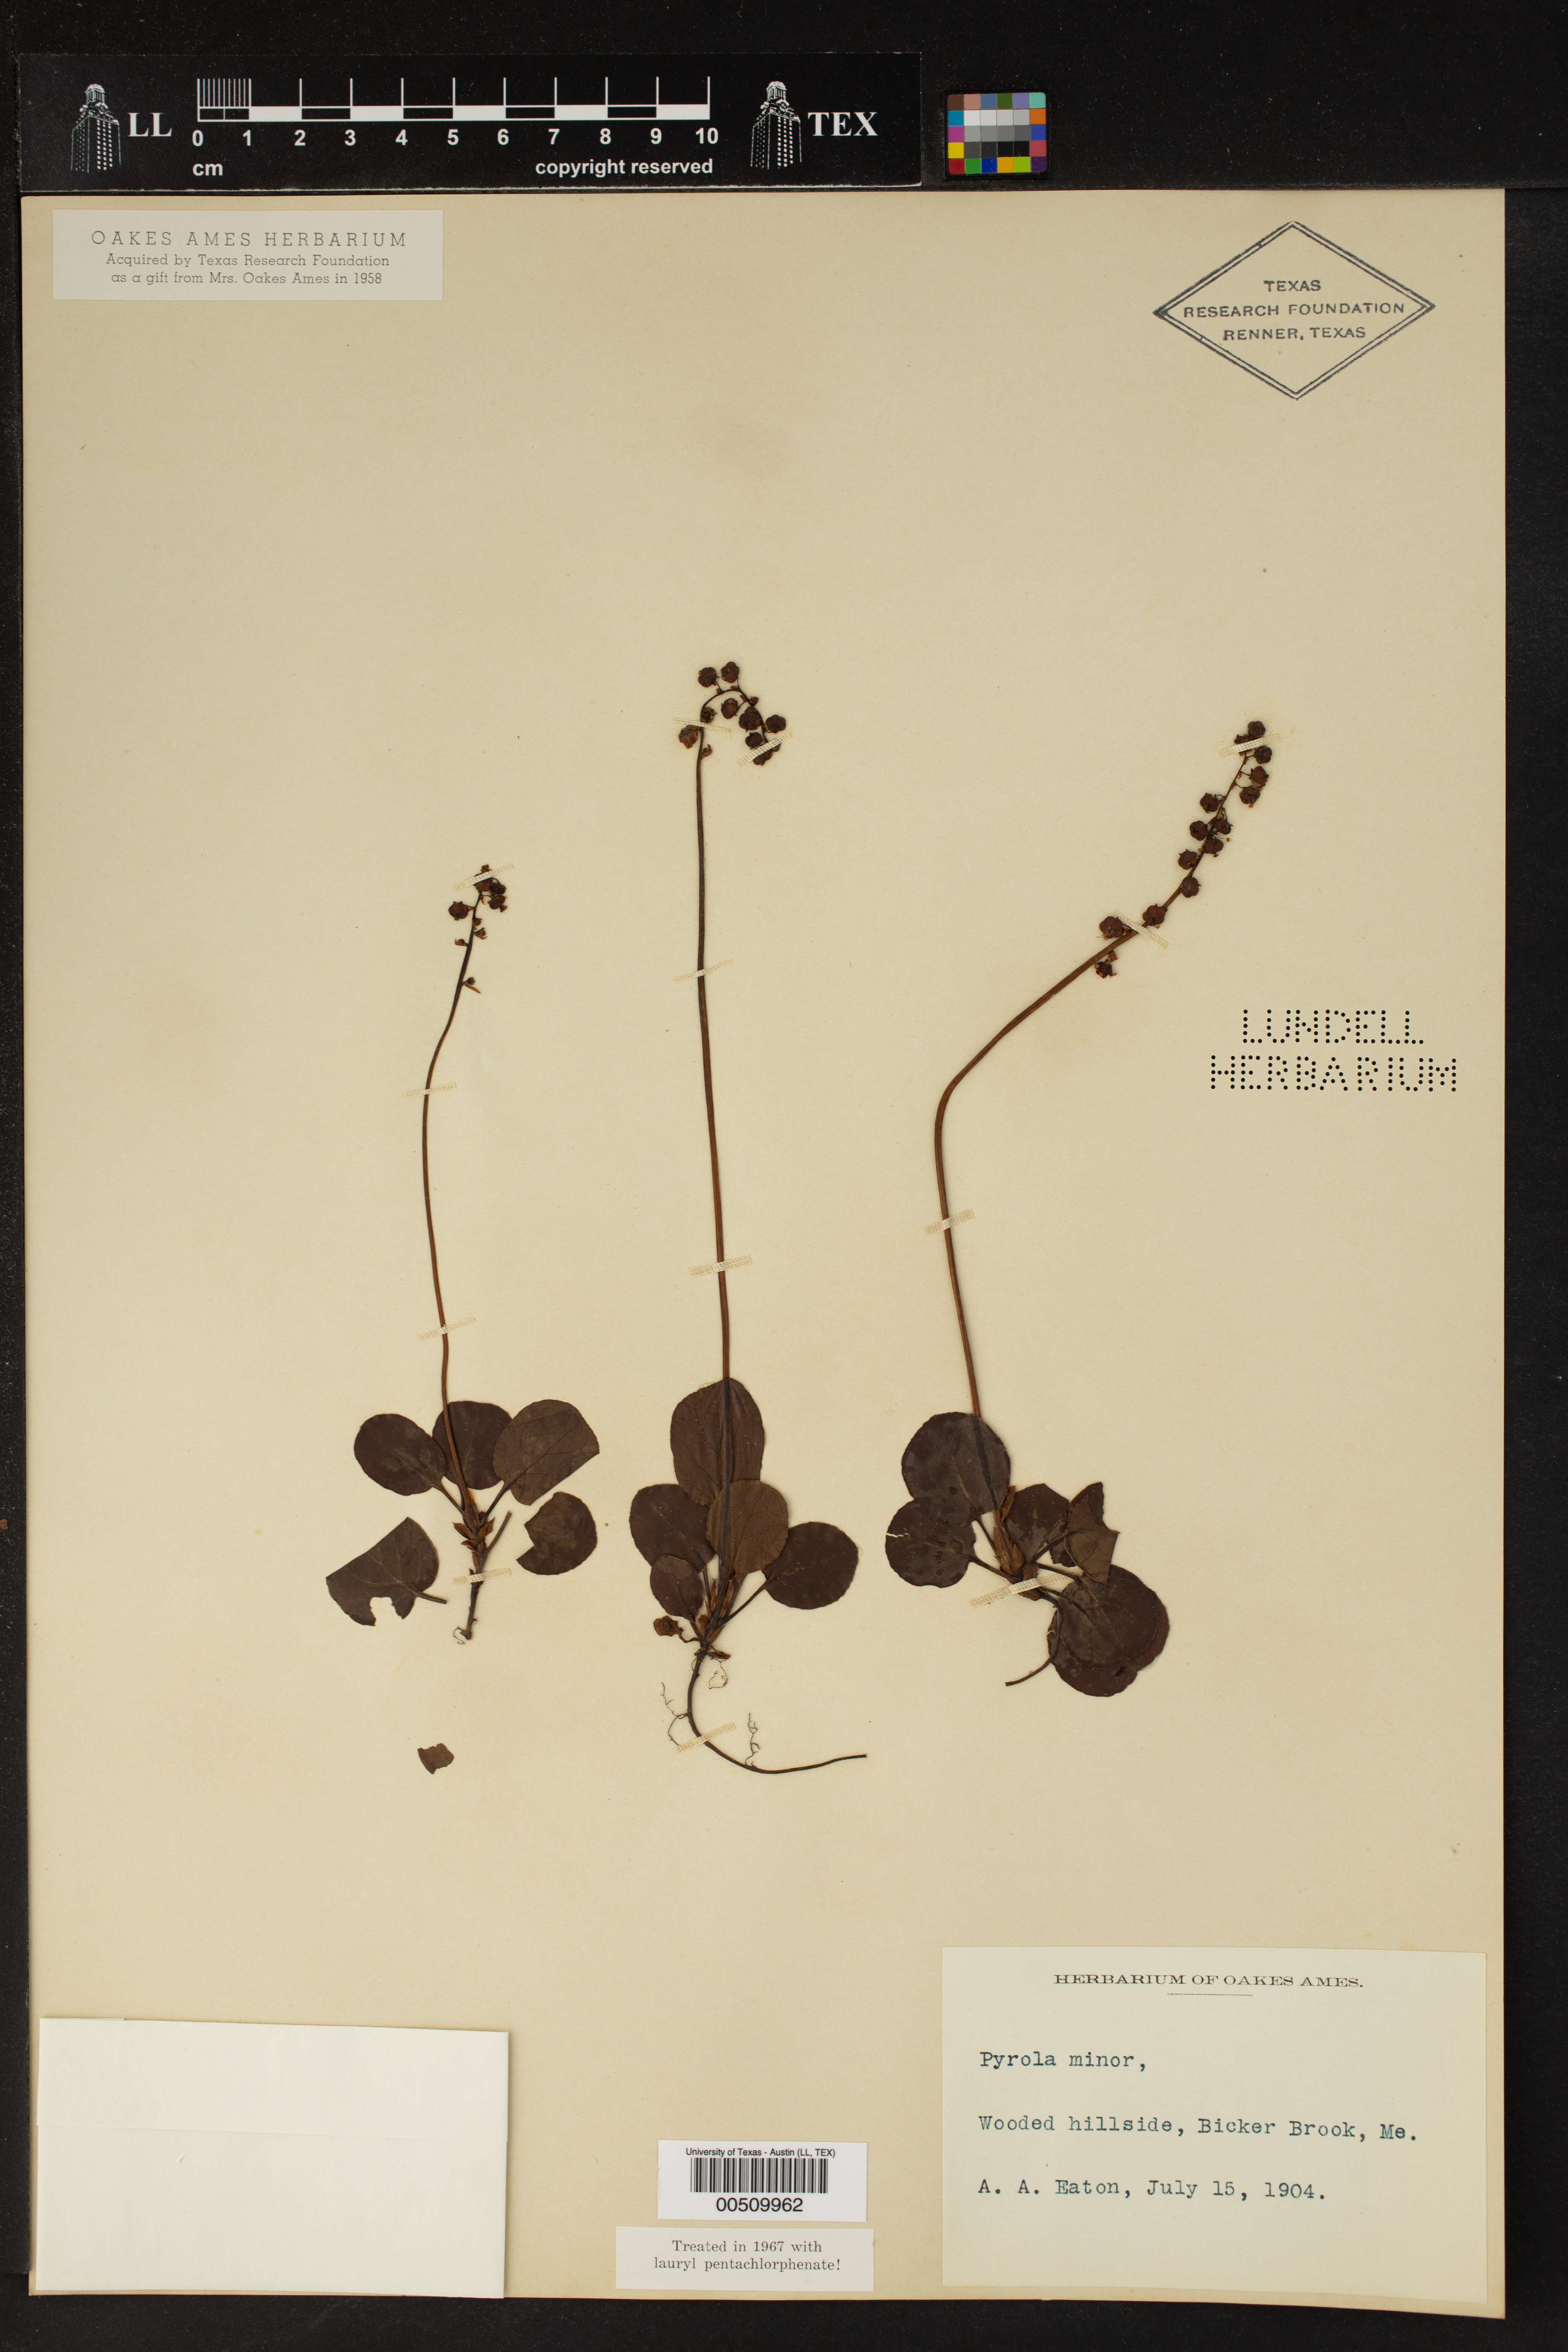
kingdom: Plantae
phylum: Tracheophyta
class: Magnoliopsida
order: Ericales
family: Ericaceae
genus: Pyrola
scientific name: Pyrola minor
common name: Common wintergreen
